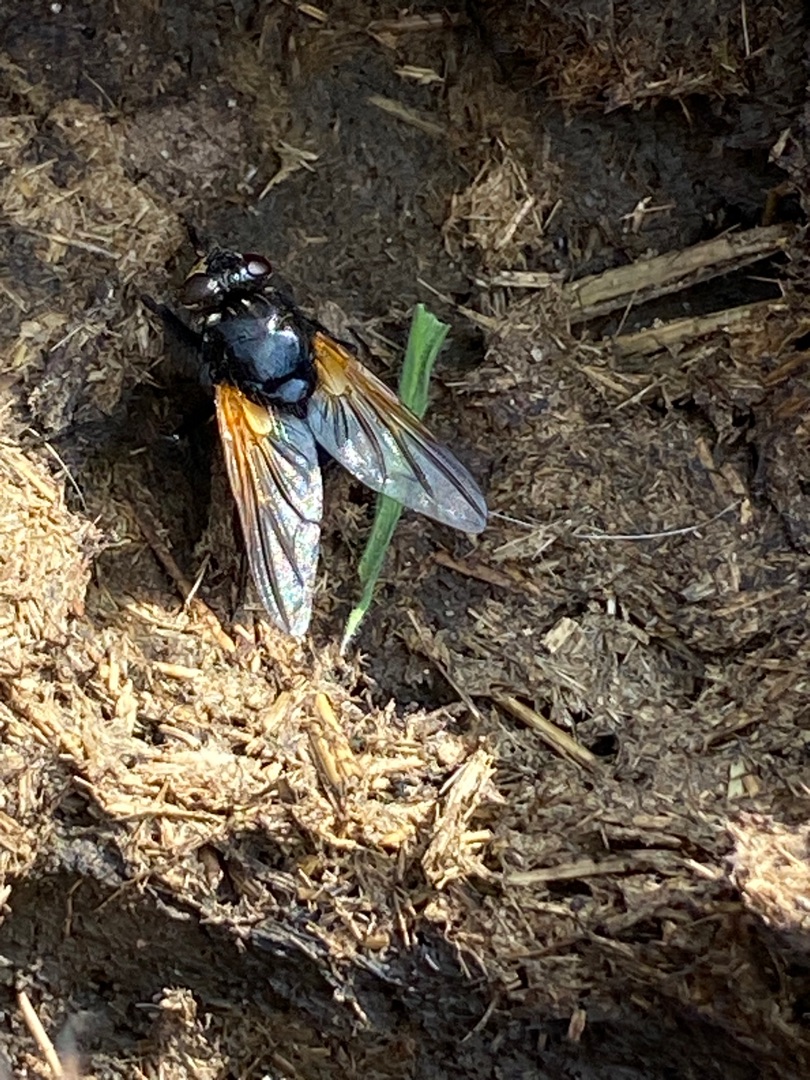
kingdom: Animalia
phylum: Arthropoda
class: Insecta
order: Diptera
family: Muscidae
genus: Mesembrina
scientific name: Mesembrina meridiana
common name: Gulvinget flue
